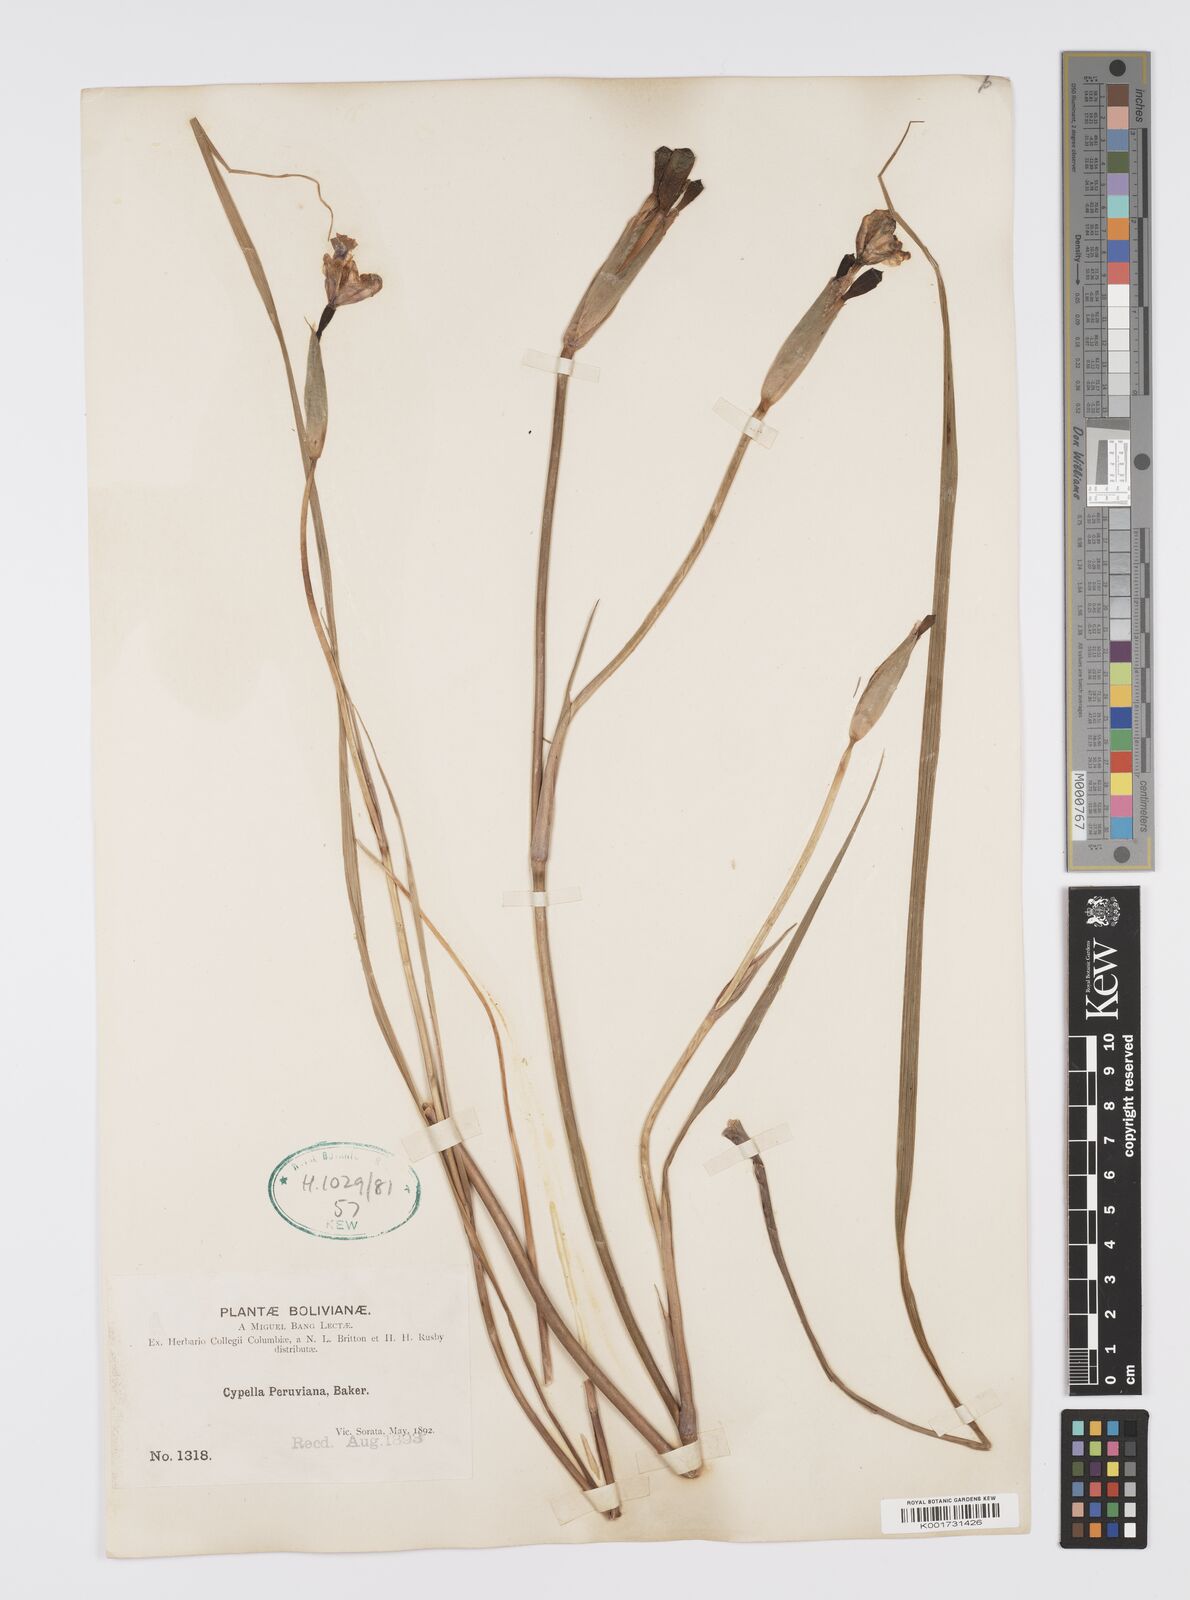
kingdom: Plantae
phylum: Tracheophyta
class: Liliopsida
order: Asparagales
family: Iridaceae
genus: Hesperoxiphion
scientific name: Hesperoxiphion peruvianum
